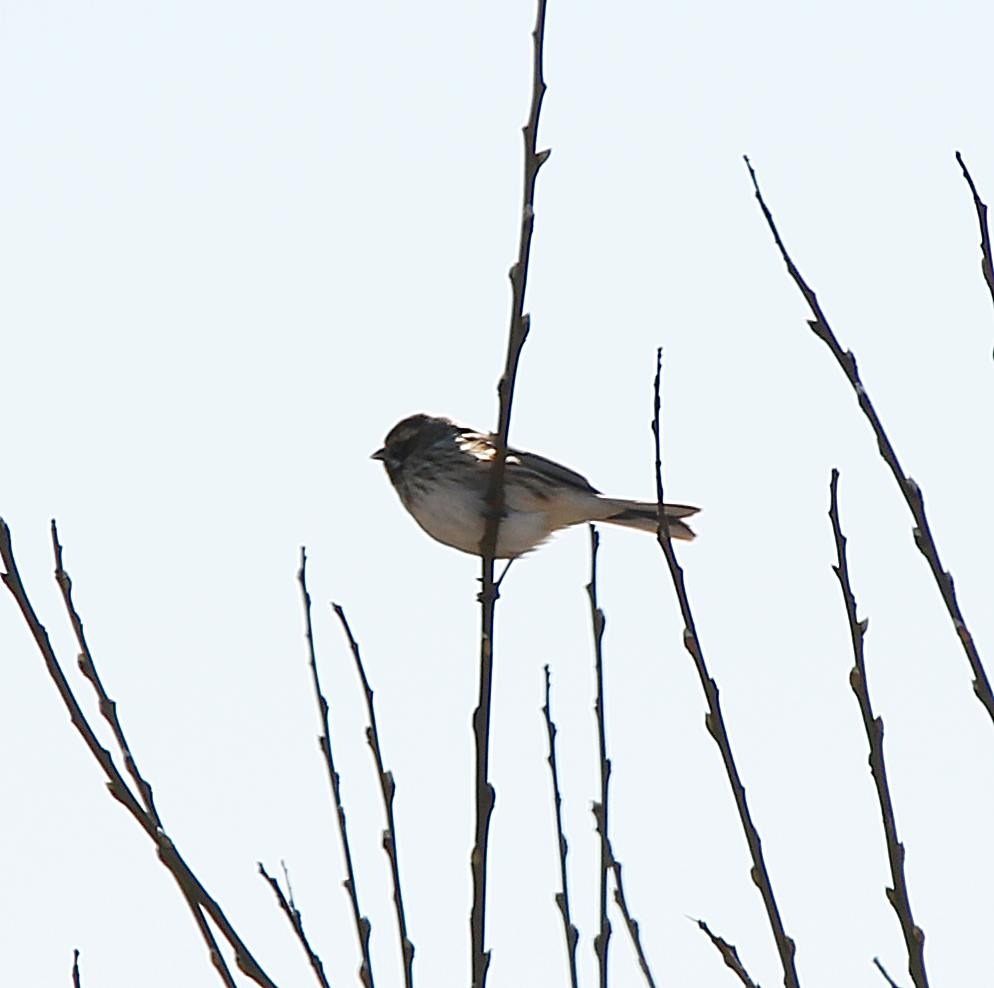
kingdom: Animalia
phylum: Chordata
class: Aves
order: Passeriformes
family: Emberizidae
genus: Emberiza
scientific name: Emberiza schoeniclus
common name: Rørspurv
